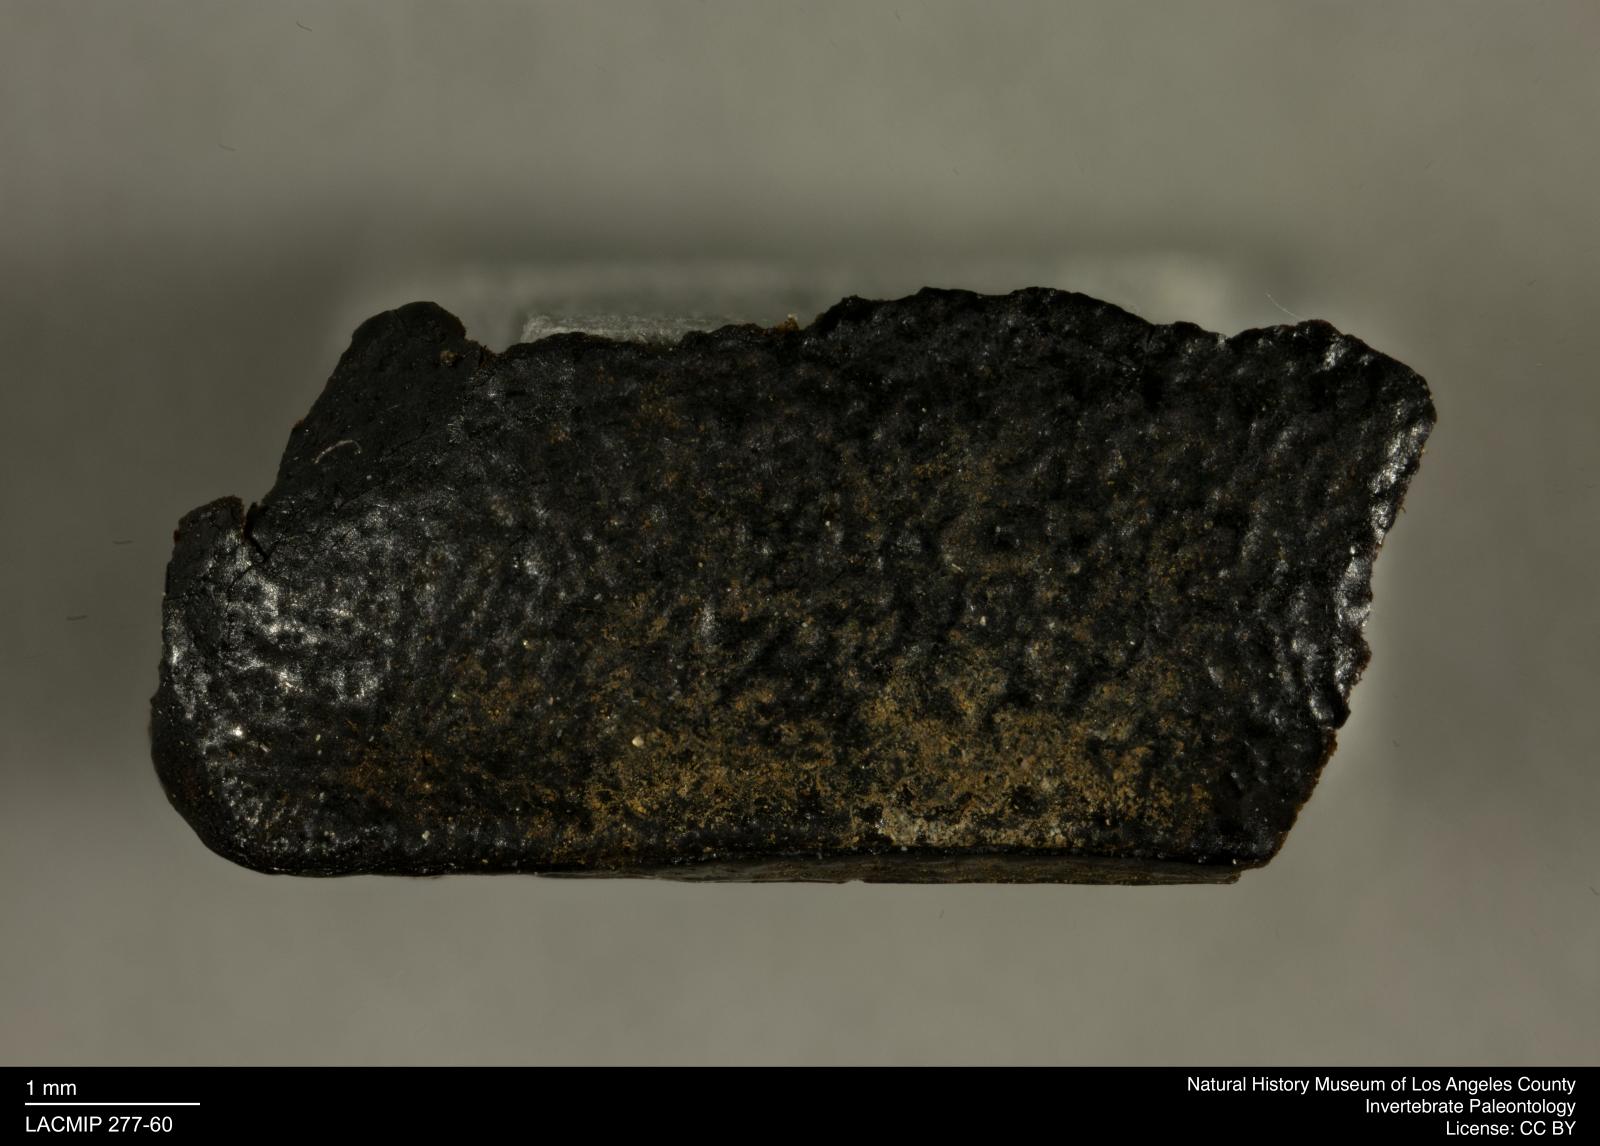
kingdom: Animalia
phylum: Arthropoda
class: Insecta
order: Coleoptera
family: Tenebrionidae
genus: Coniontis
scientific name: Coniontis abdominalis
